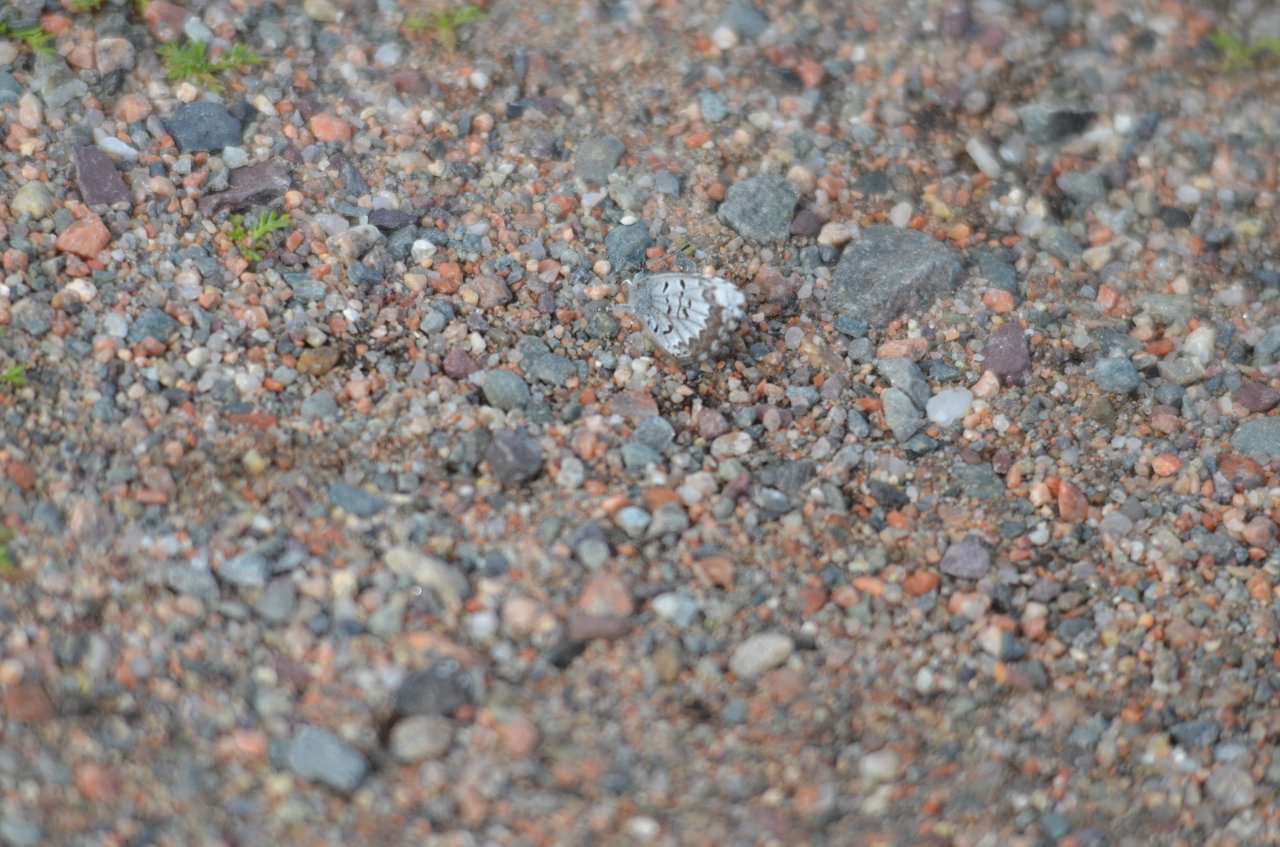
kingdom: Animalia
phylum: Arthropoda
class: Insecta
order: Lepidoptera
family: Lycaenidae
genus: Celastrina
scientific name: Celastrina lucia
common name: Northern Spring Azure
